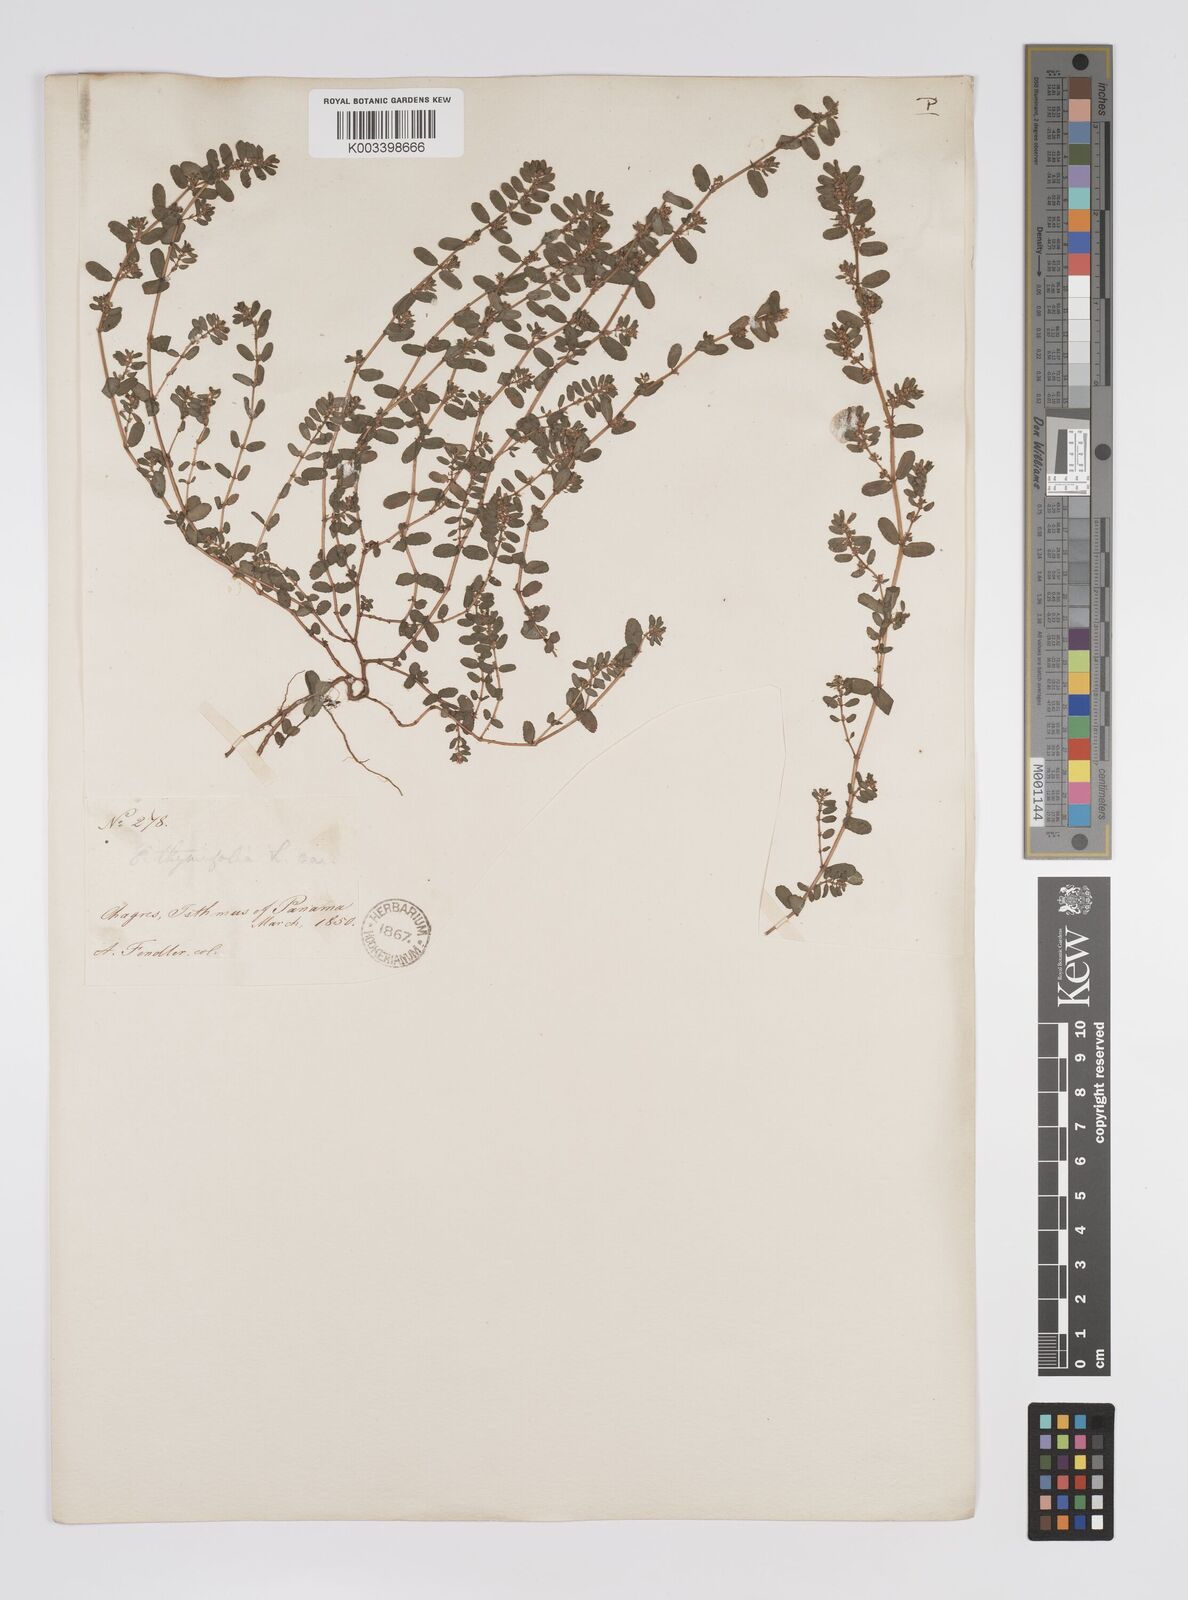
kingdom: Plantae
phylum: Tracheophyta
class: Magnoliopsida
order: Malpighiales
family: Euphorbiaceae
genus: Euphorbia
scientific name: Euphorbia
